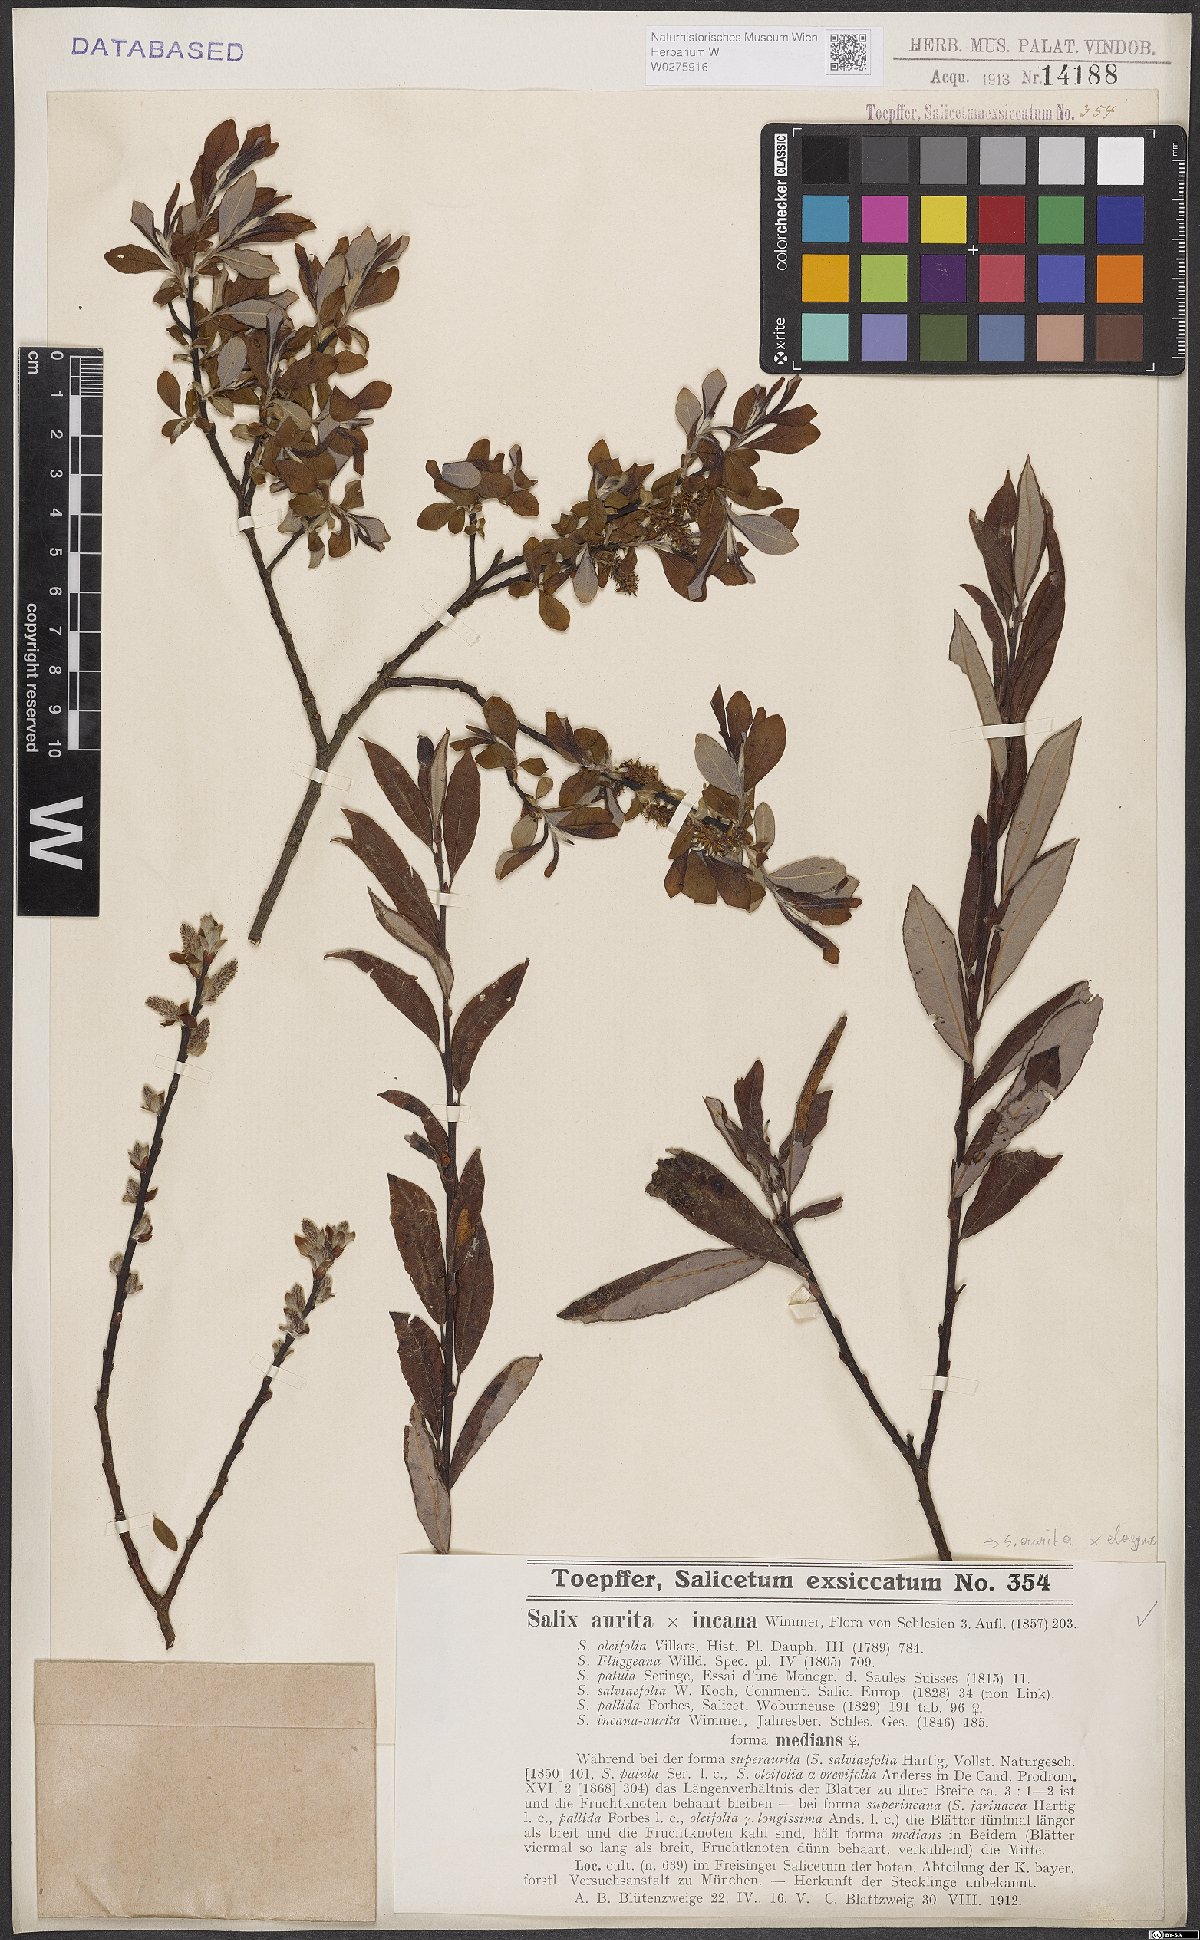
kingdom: Plantae
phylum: Tracheophyta
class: Magnoliopsida
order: Malpighiales
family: Salicaceae
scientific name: Salicaceae
